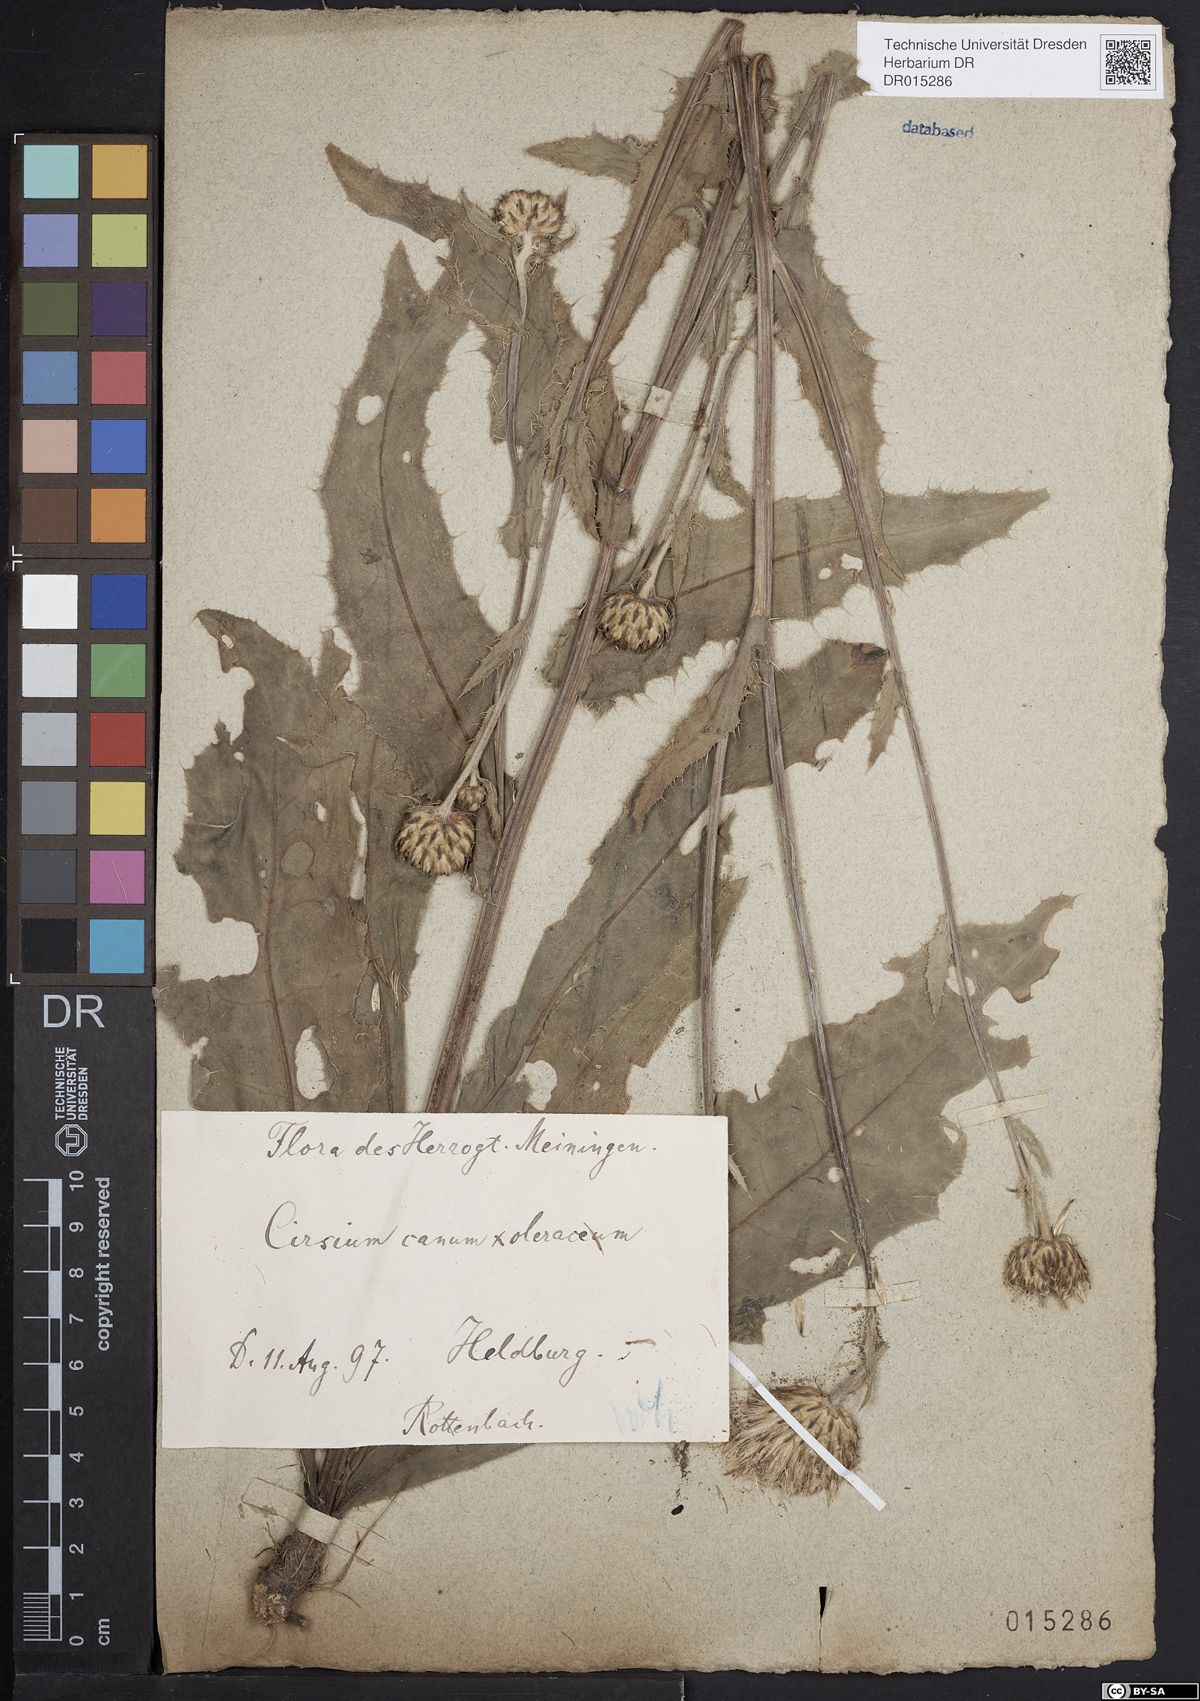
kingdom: Plantae
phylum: Tracheophyta
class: Magnoliopsida
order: Asterales
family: Asteraceae
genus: Cirsium
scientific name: Cirsium tataricum
